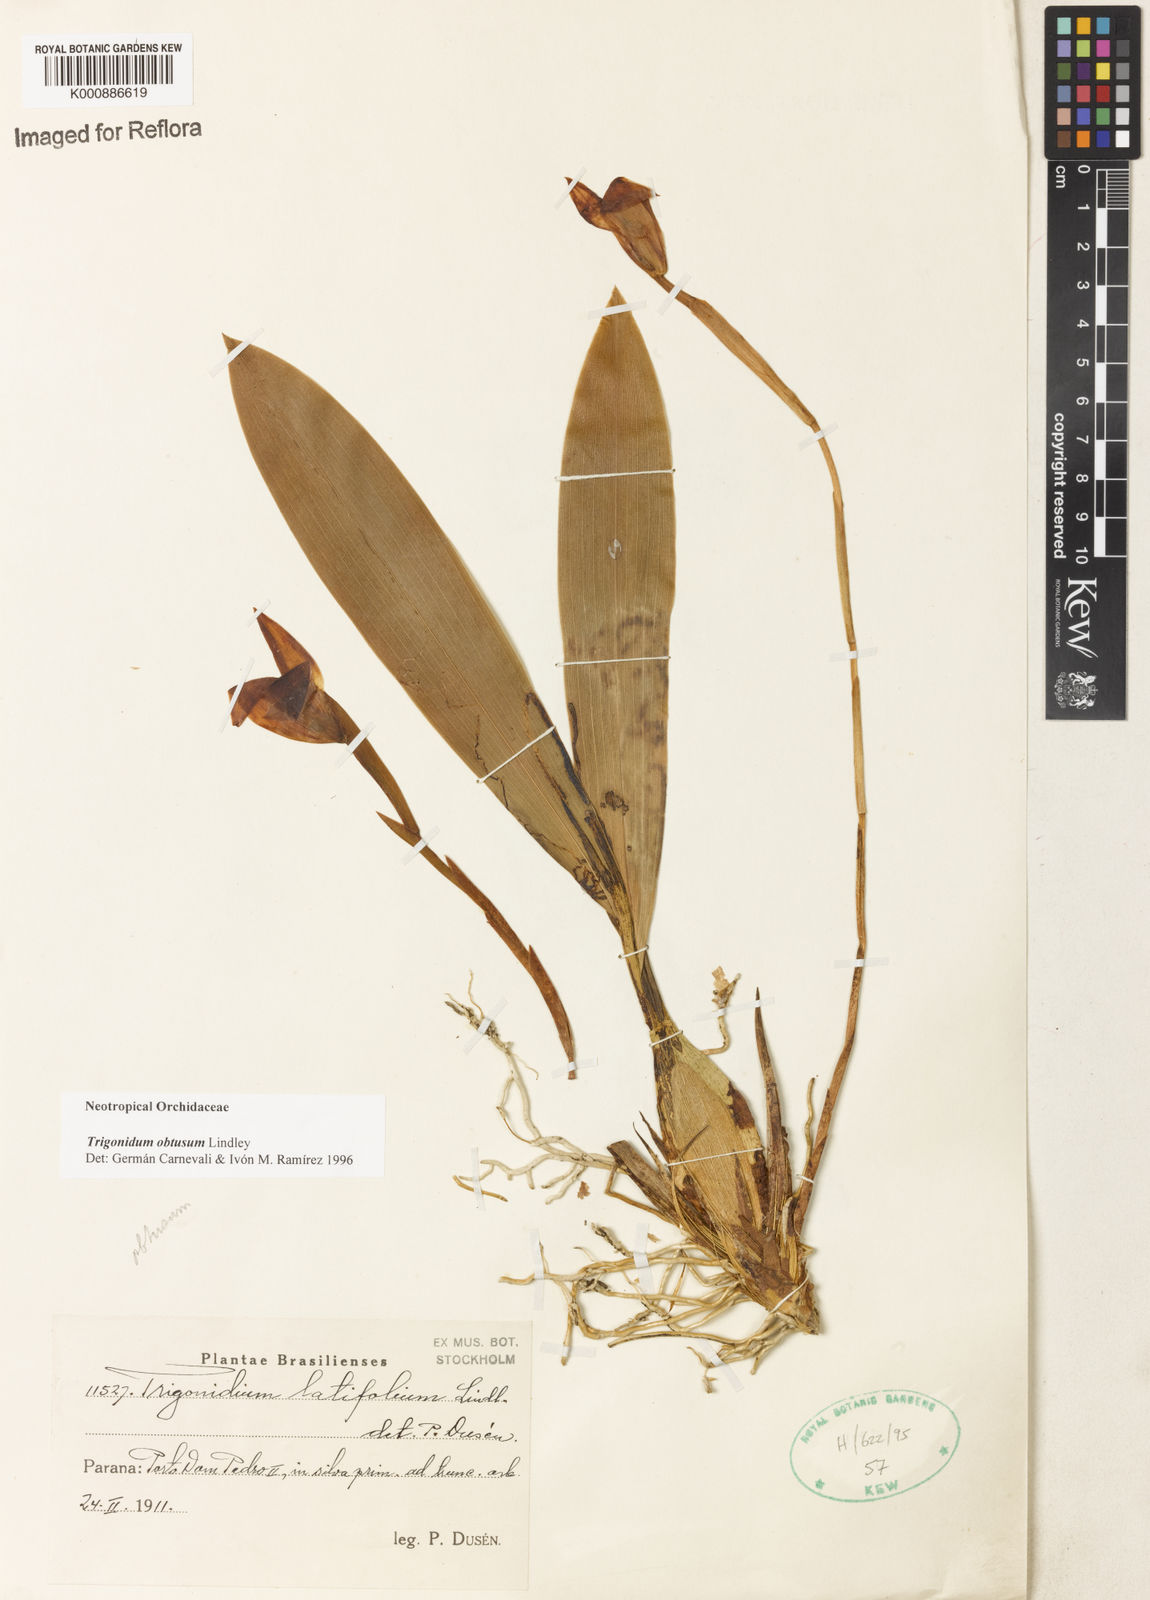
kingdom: Plantae
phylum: Tracheophyta
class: Liliopsida
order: Asparagales
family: Orchidaceae
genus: Maxillaria
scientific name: Maxillaria obtusa
